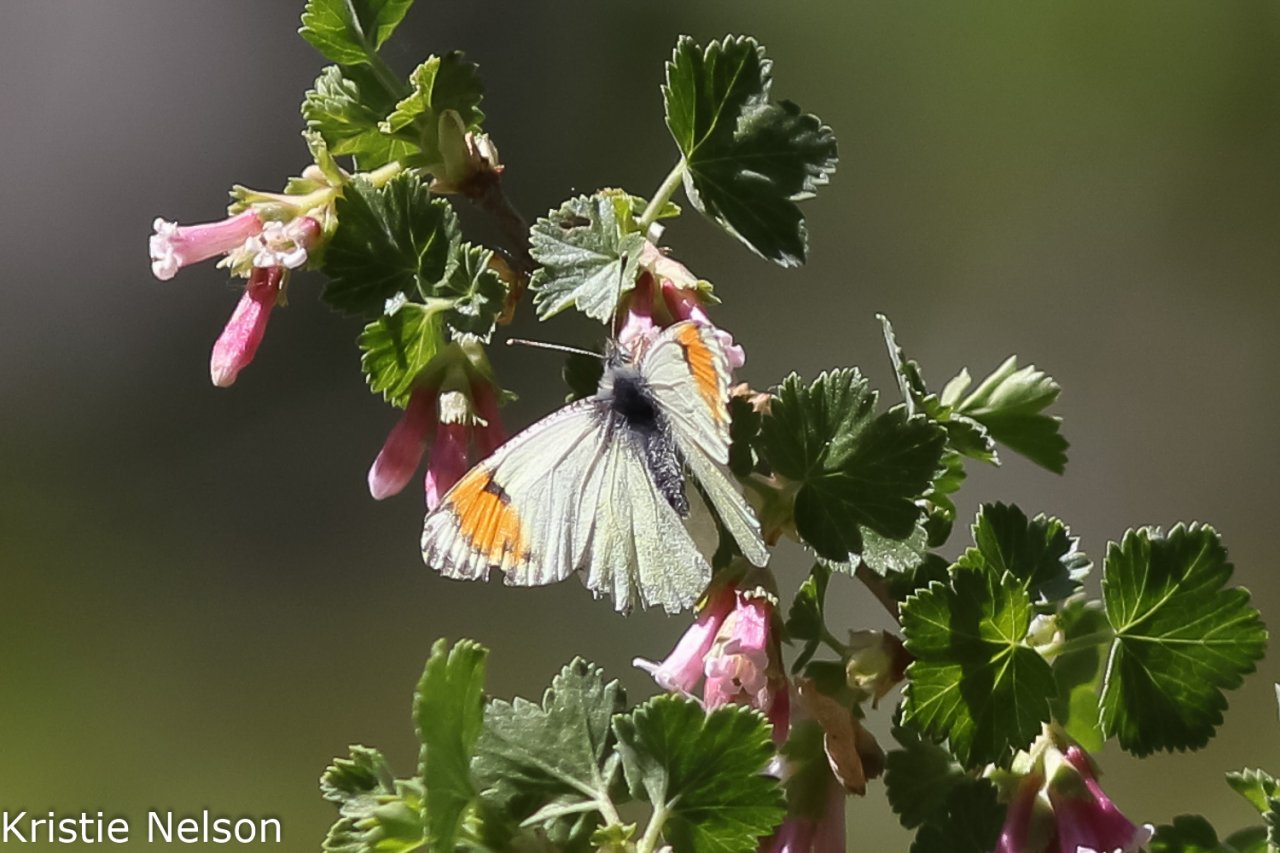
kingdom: Animalia
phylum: Arthropoda
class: Insecta
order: Lepidoptera
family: Pieridae
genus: Anthocharis
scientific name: Anthocharis sara
